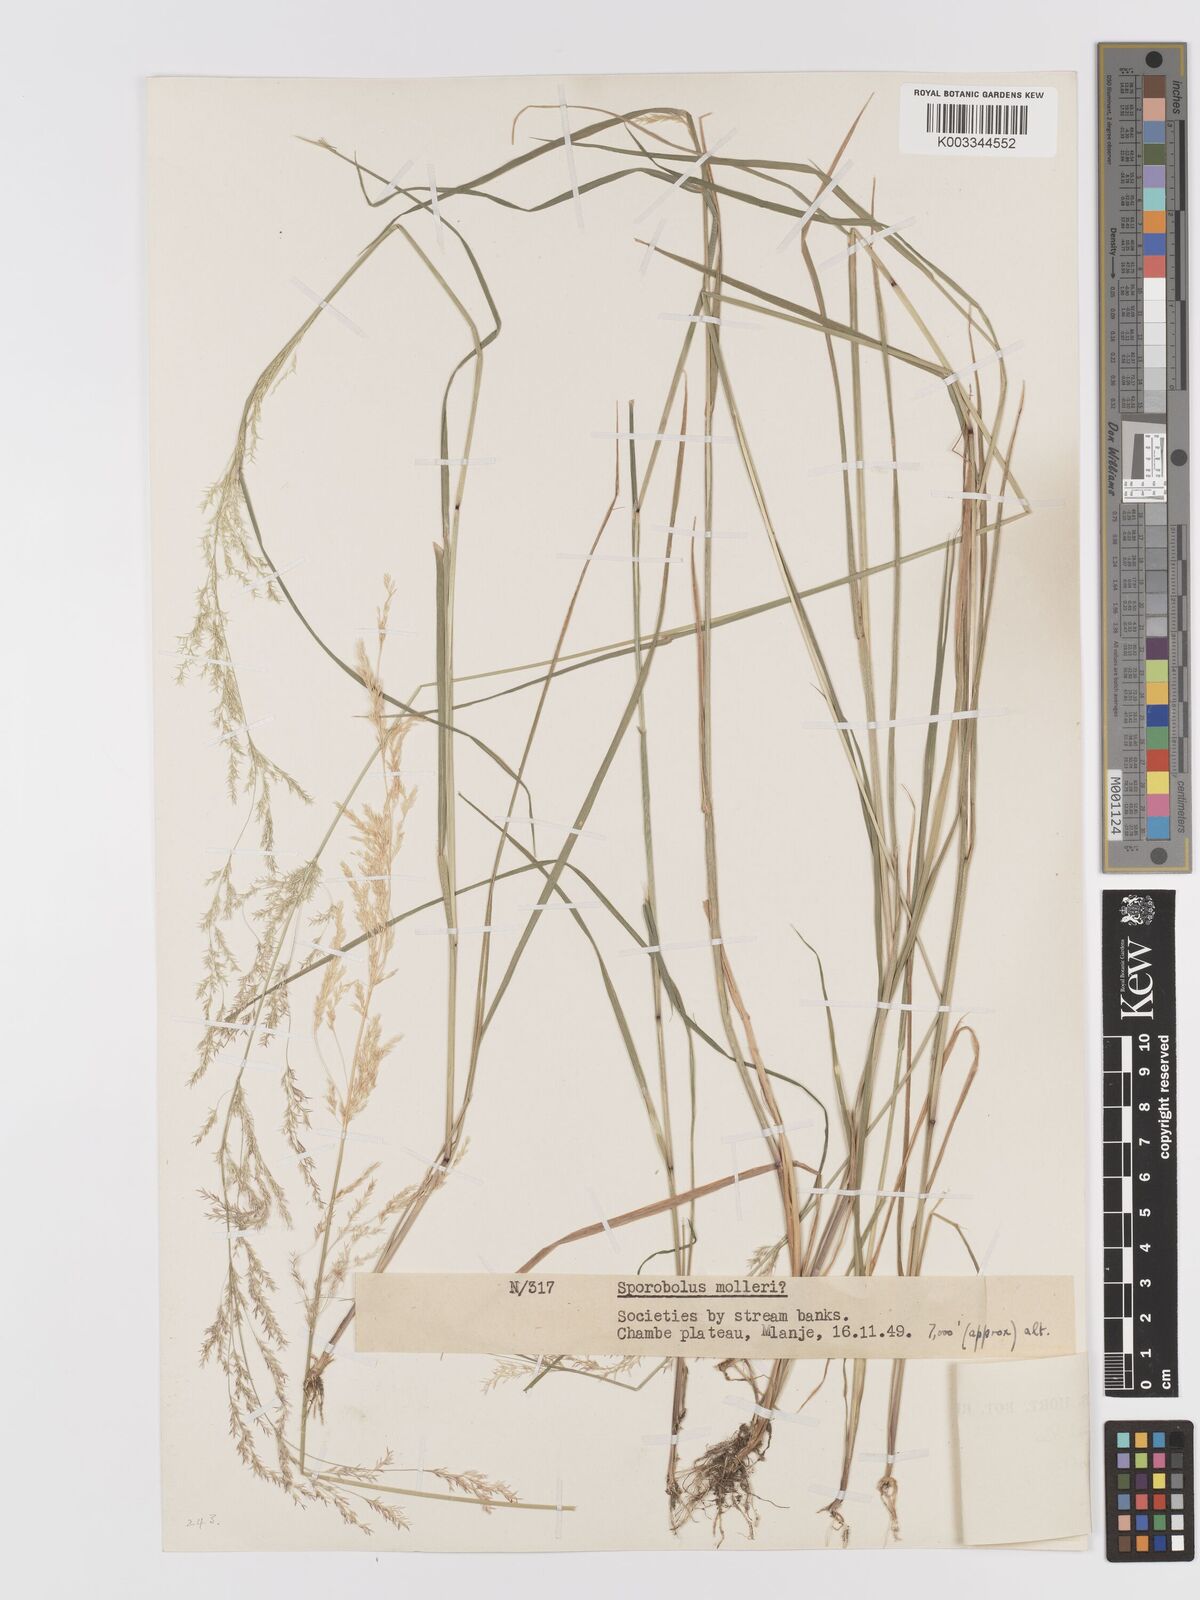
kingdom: Plantae
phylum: Tracheophyta
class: Liliopsida
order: Poales
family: Poaceae
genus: Lachnagrostis
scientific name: Lachnagrostis lachnantha
